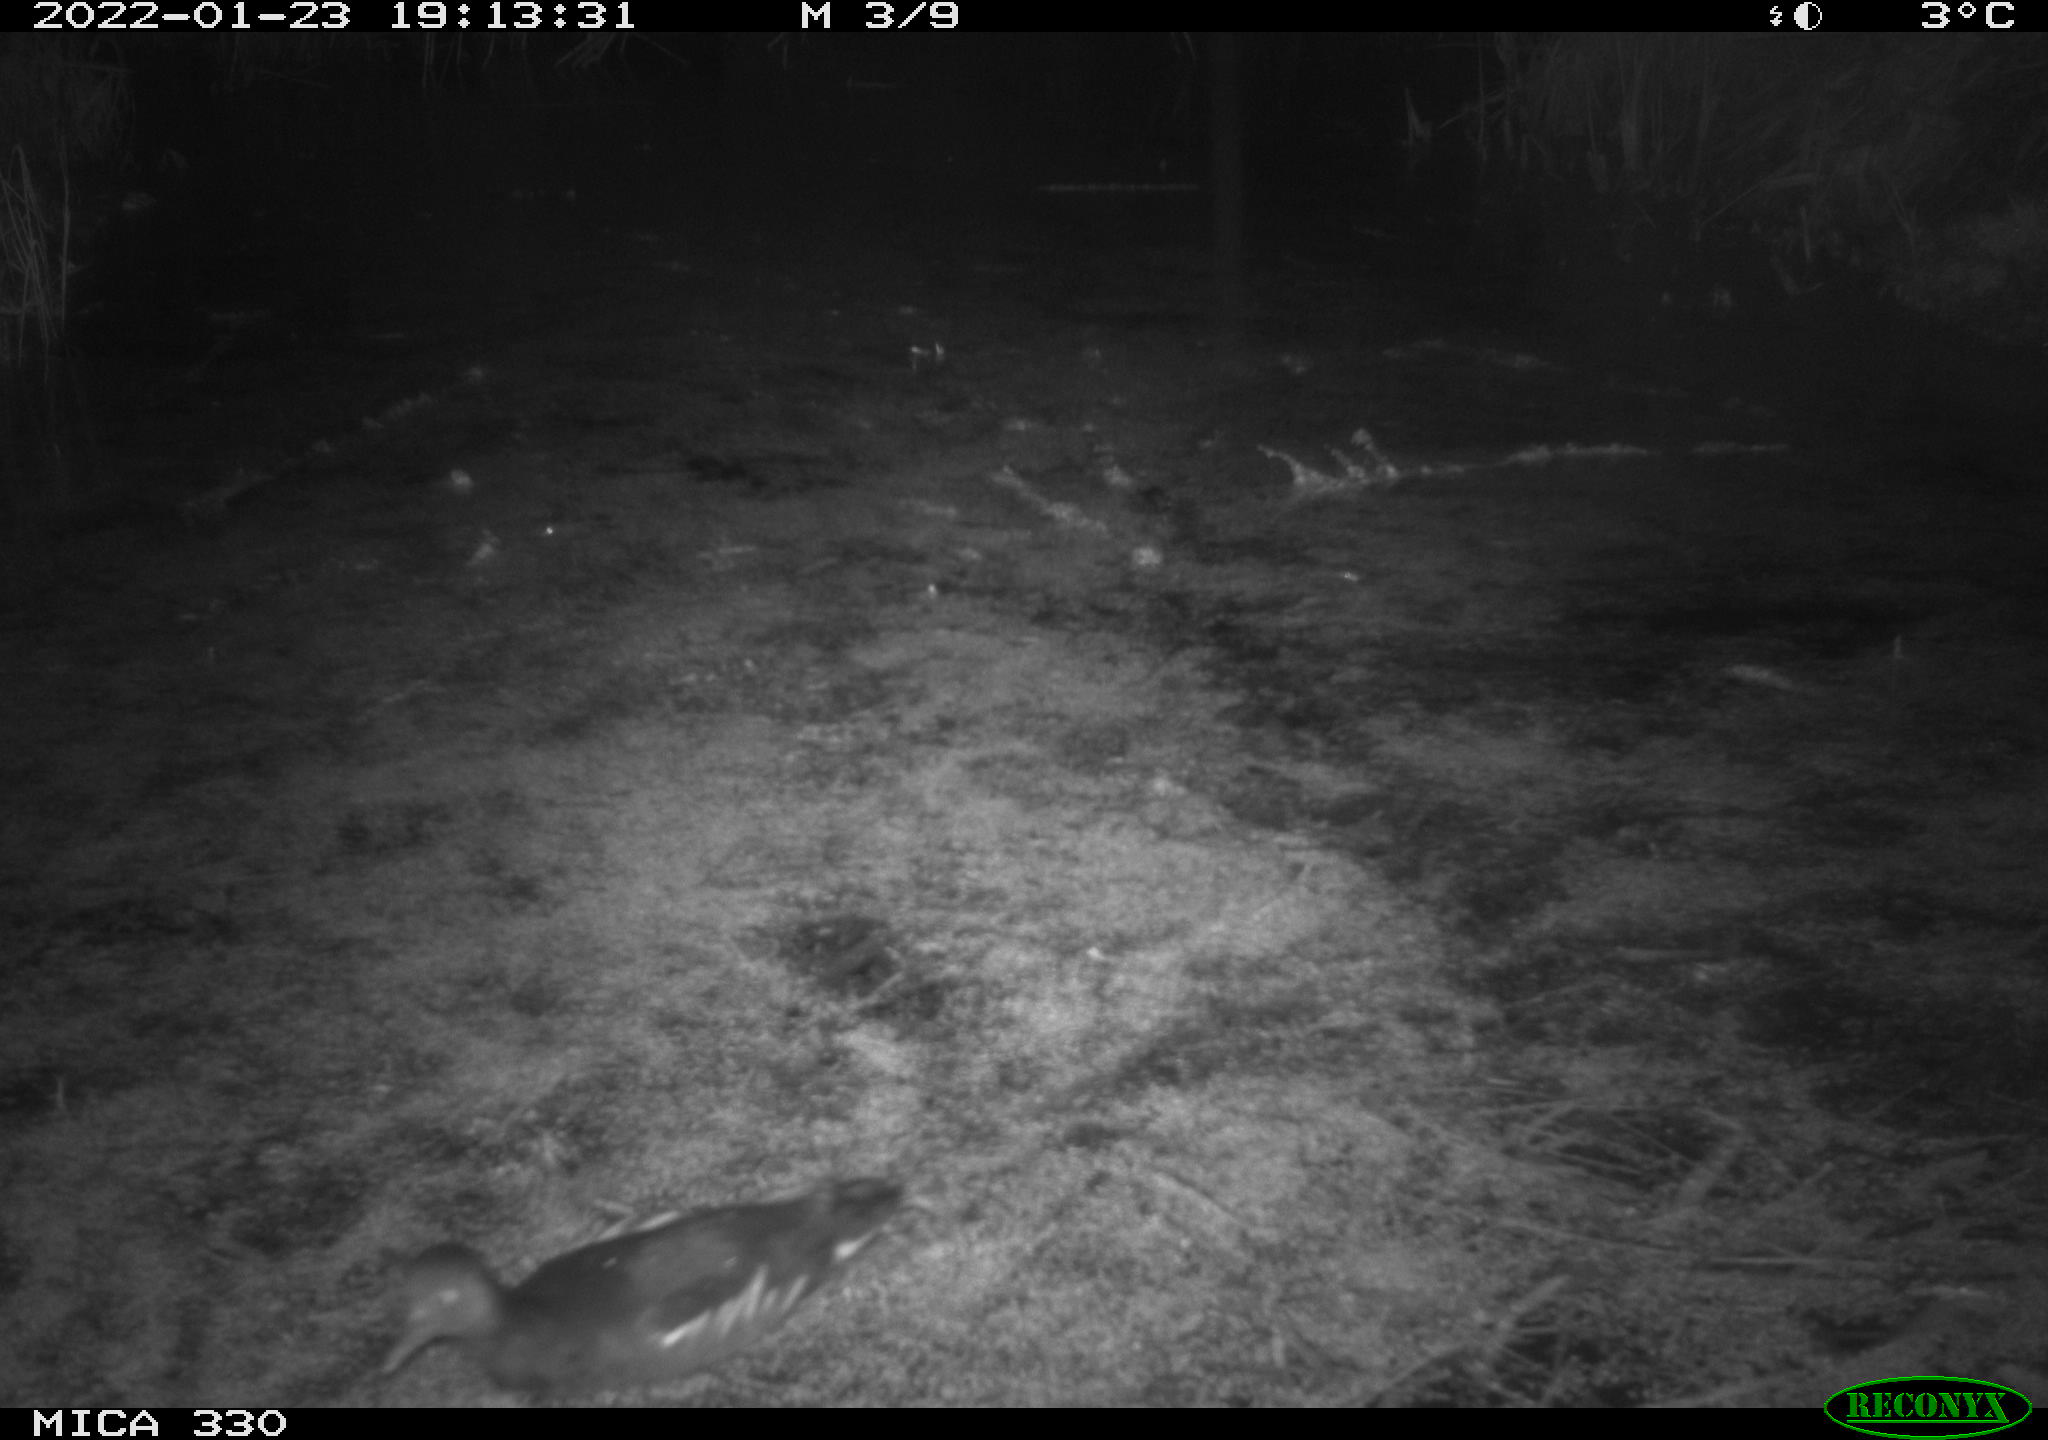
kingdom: Animalia
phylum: Chordata
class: Aves
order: Gruiformes
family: Rallidae
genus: Gallinula
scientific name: Gallinula chloropus
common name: Common moorhen
